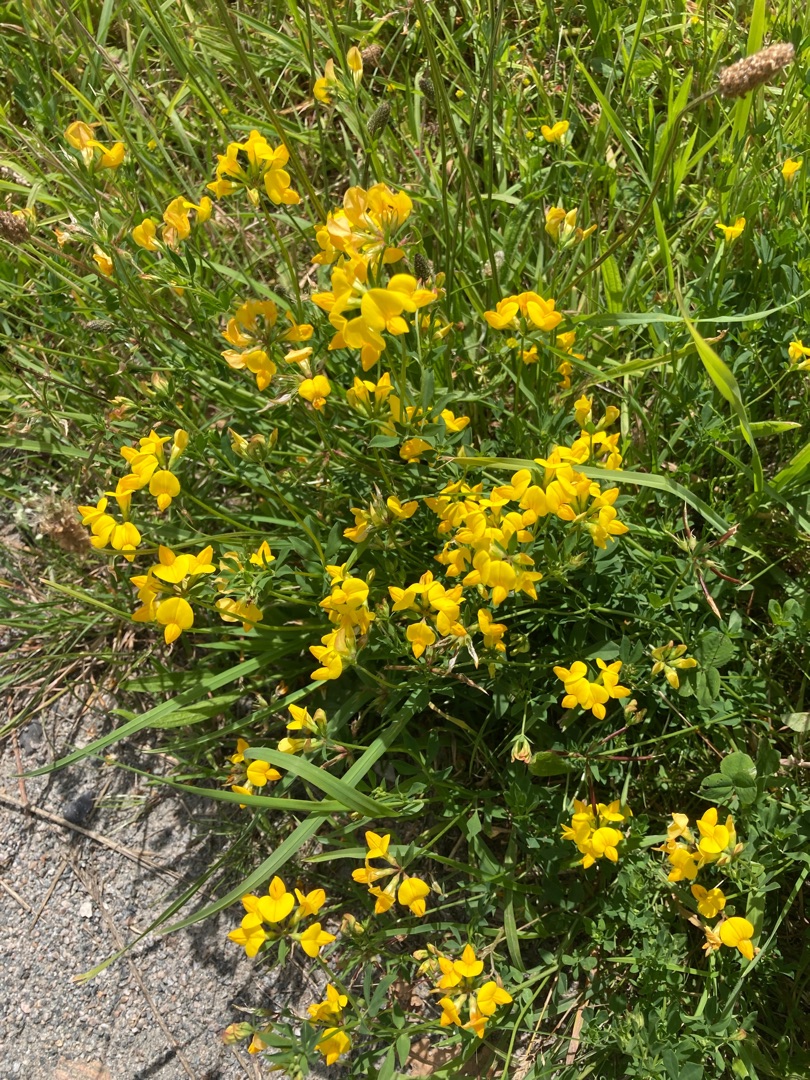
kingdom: Plantae
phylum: Tracheophyta
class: Magnoliopsida
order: Fabales
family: Fabaceae
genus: Lotus
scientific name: Lotus corniculatus
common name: Almindelig kællingetand
